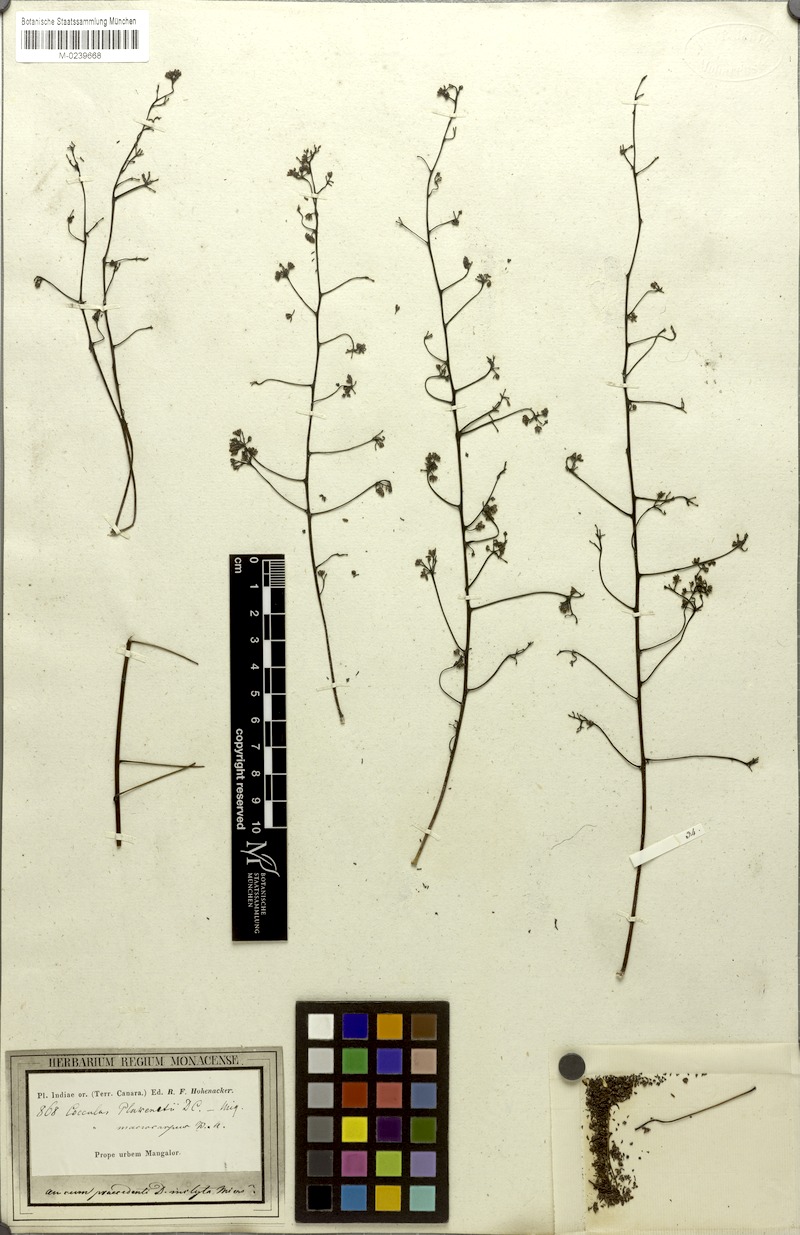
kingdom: Plantae
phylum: Tracheophyta
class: Magnoliopsida
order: Ranunculales
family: Menispermaceae
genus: Diploclisia
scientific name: Diploclisia glaucescens
